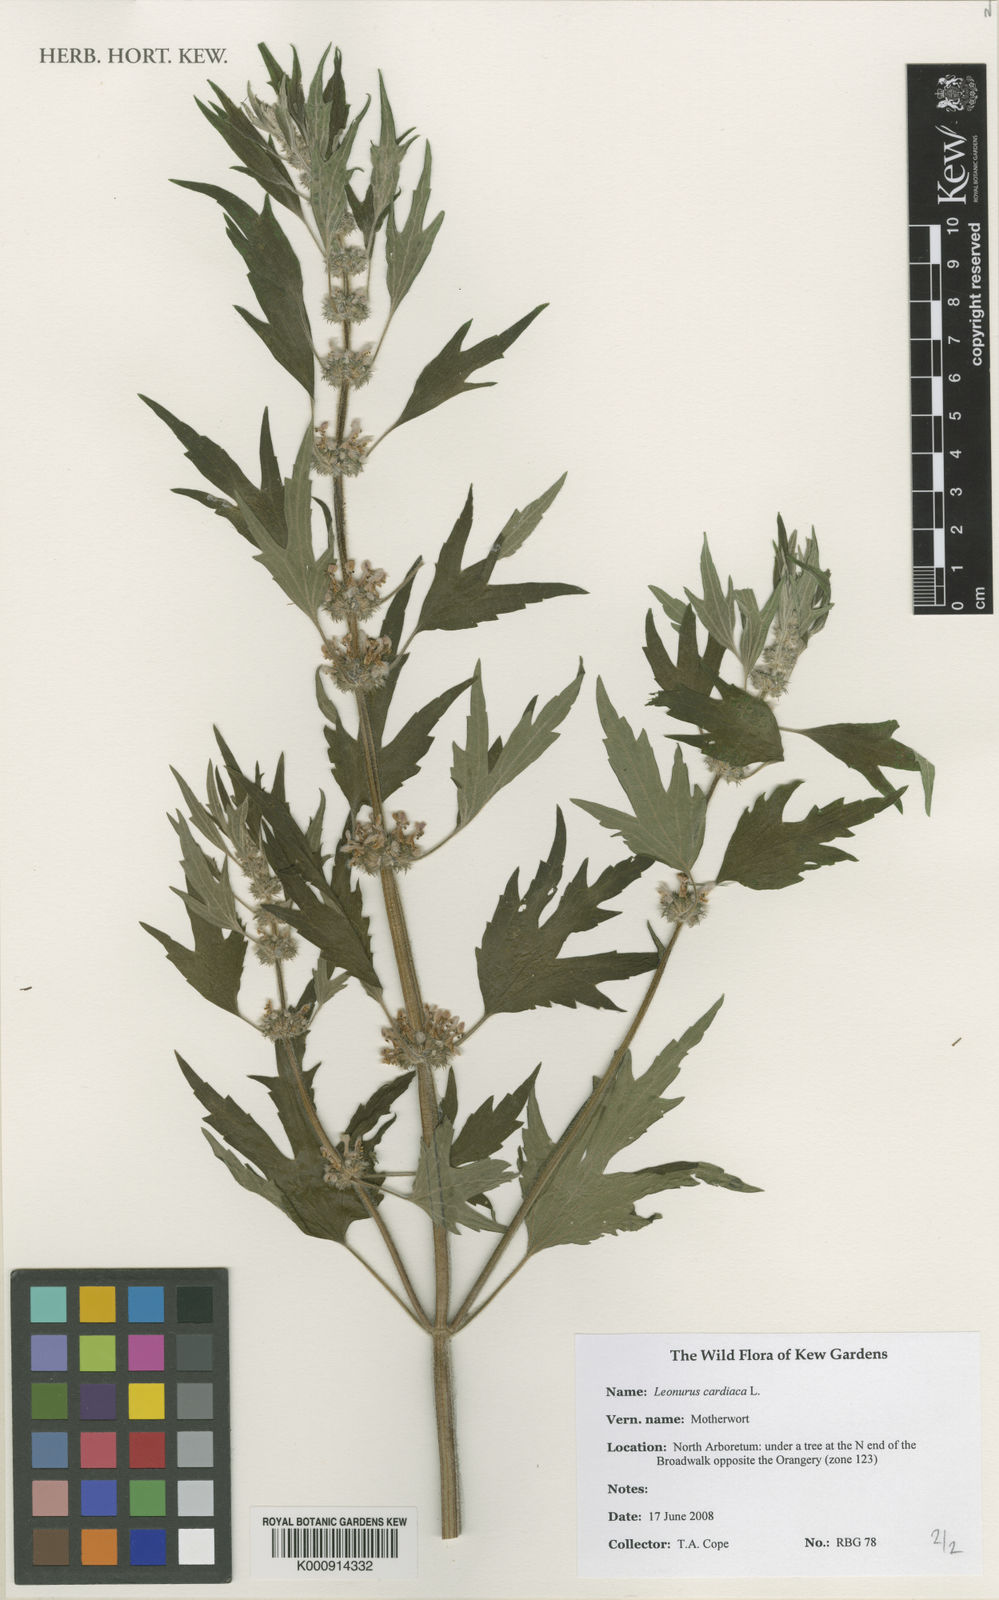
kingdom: Plantae
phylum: Tracheophyta
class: Magnoliopsida
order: Lamiales
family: Lamiaceae
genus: Leonurus
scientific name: Leonurus cardiaca
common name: Motherwort
